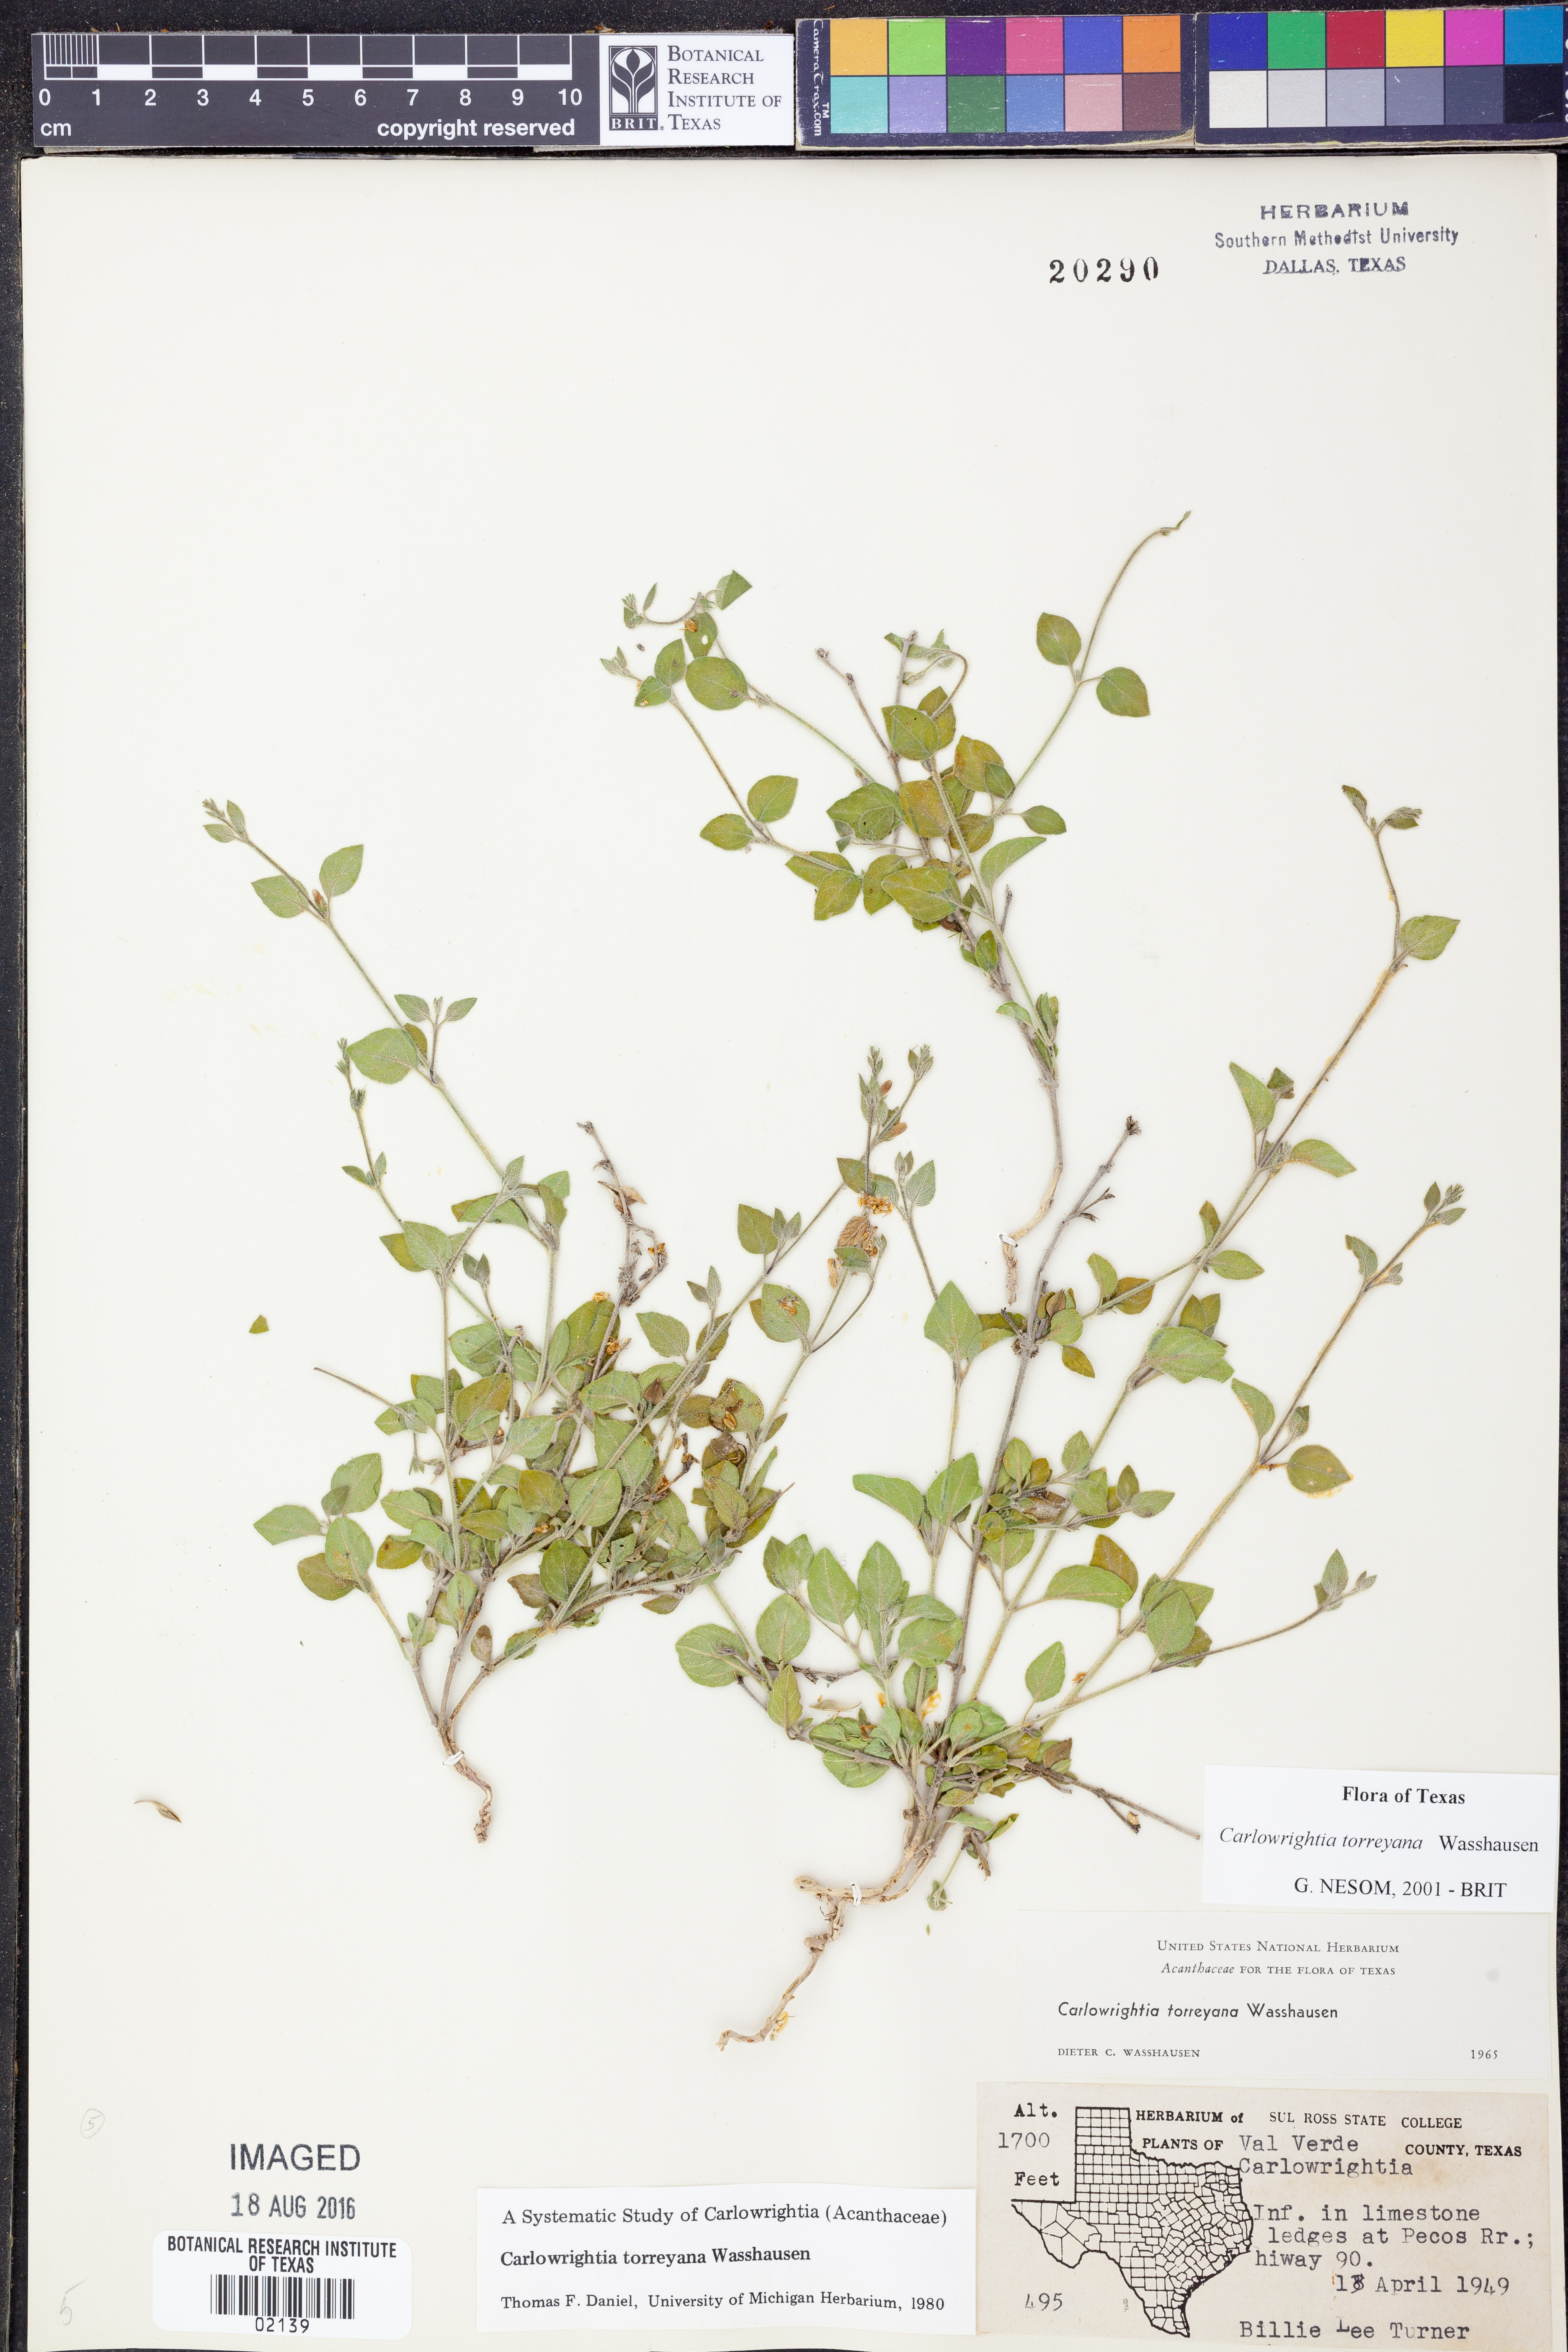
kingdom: Plantae
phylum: Tracheophyta
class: Magnoliopsida
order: Lamiales
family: Acanthaceae
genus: Carlowrightia
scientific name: Carlowrightia torreyana
